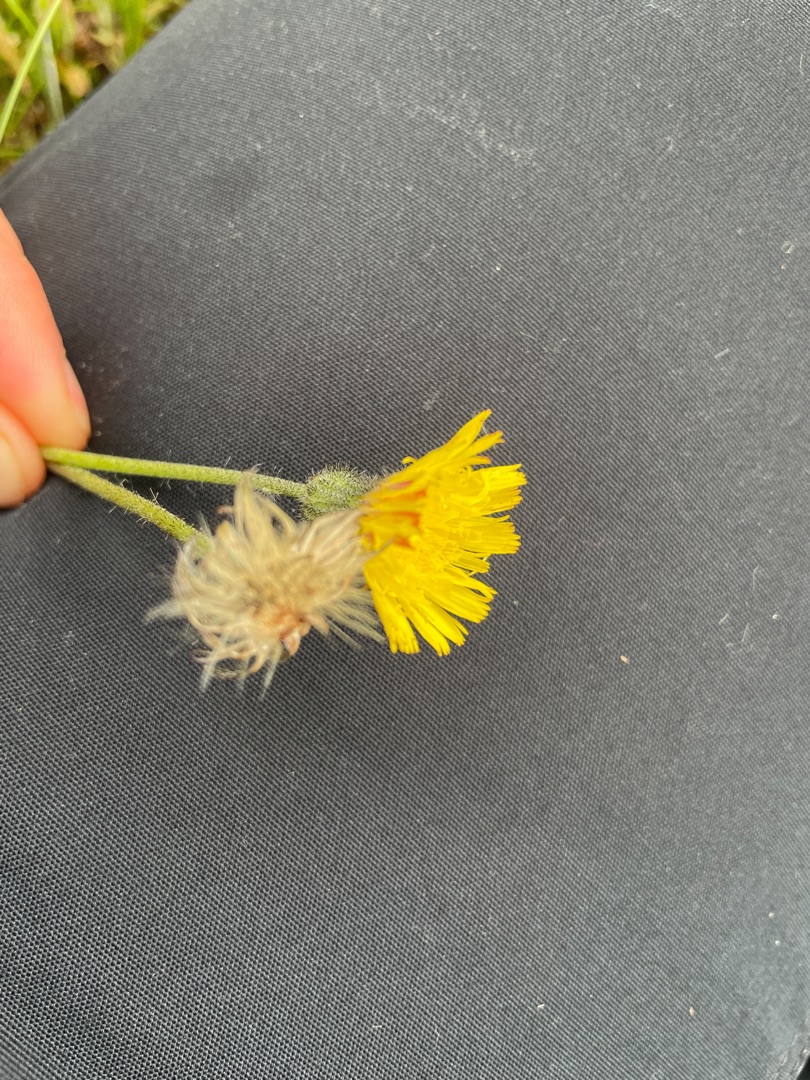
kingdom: Plantae
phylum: Tracheophyta
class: Magnoliopsida
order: Asterales
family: Asteraceae
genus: Pilosella
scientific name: Pilosella officinarum
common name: Håret høgeurt
